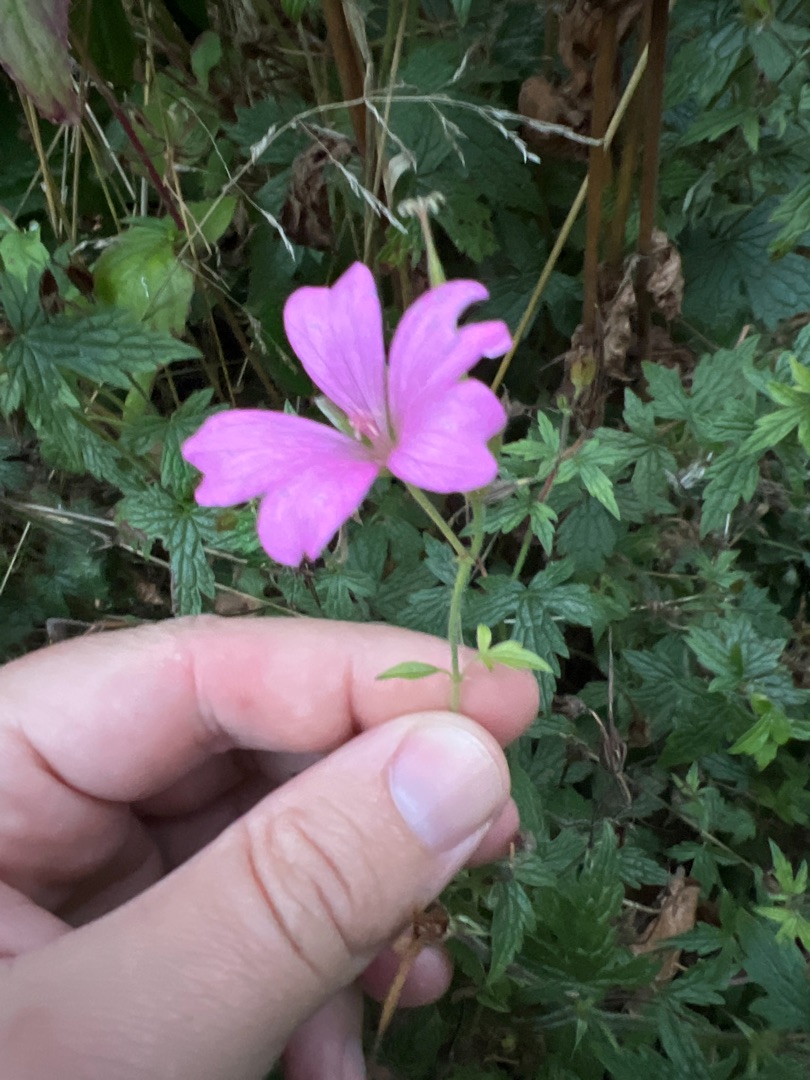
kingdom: Plantae
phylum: Tracheophyta
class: Magnoliopsida
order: Geraniales
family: Geraniaceae
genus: Geranium
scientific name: Geranium endressii
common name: Spansk storkenæb
